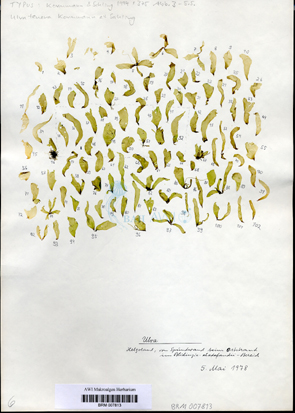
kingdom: Plantae
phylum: Chlorophyta
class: Ulvophyceae
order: Ulvales
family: Ulvaceae
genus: Ulva
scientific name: Ulva tenera
